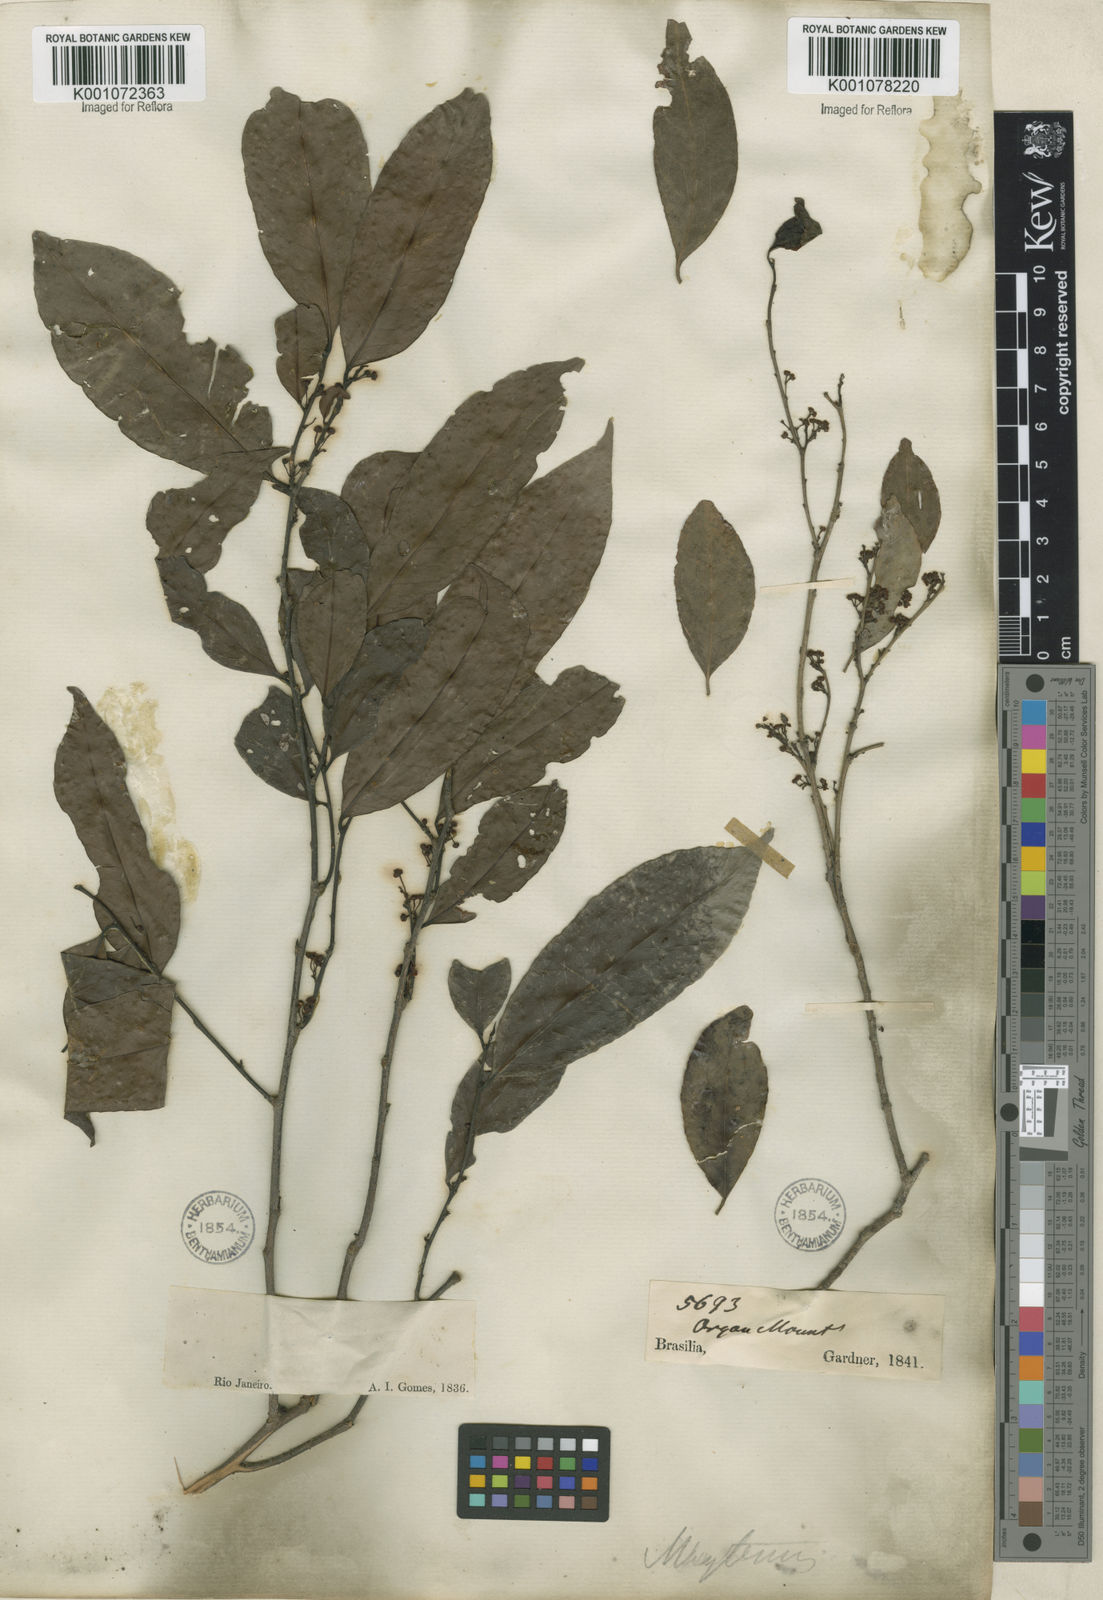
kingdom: Plantae
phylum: Tracheophyta
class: Magnoliopsida
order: Celastrales
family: Celastraceae
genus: Maytenus
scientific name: Maytenus
